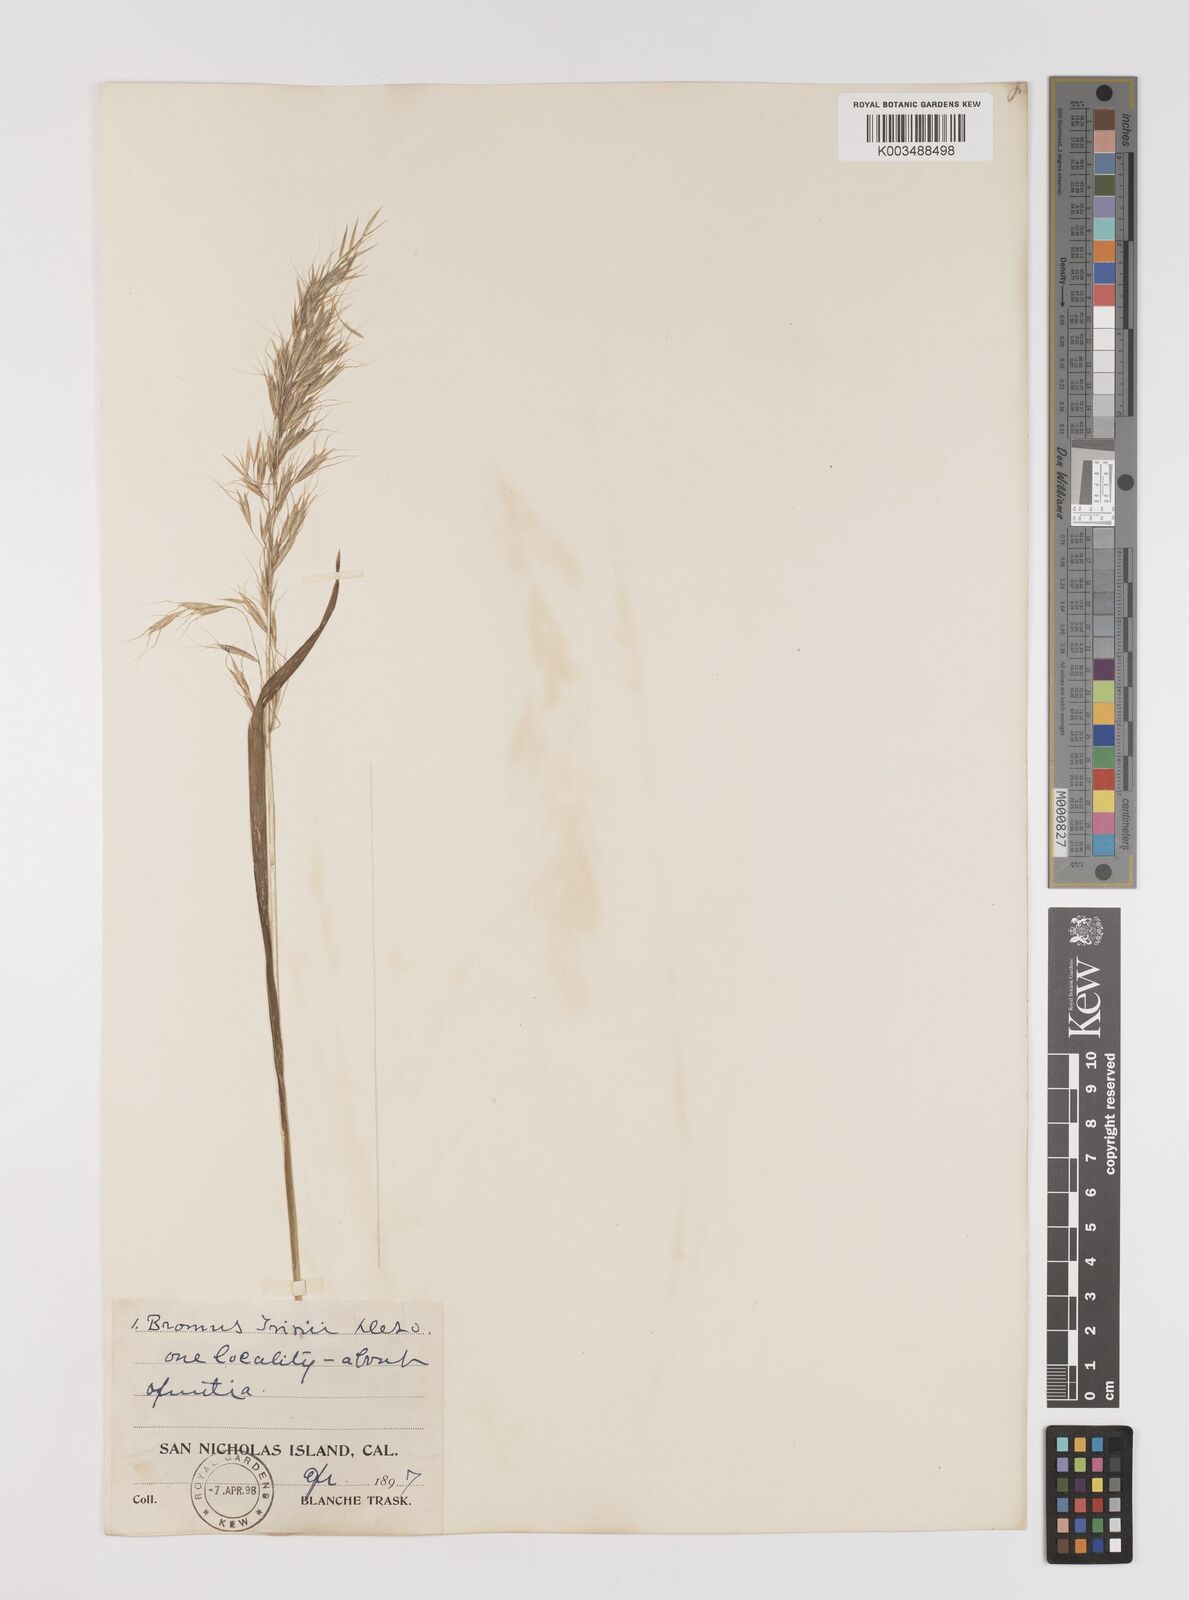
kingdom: Plantae
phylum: Tracheophyta
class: Liliopsida
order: Poales
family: Poaceae
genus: Bromus
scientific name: Bromus berteroanus
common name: Chilean chess
